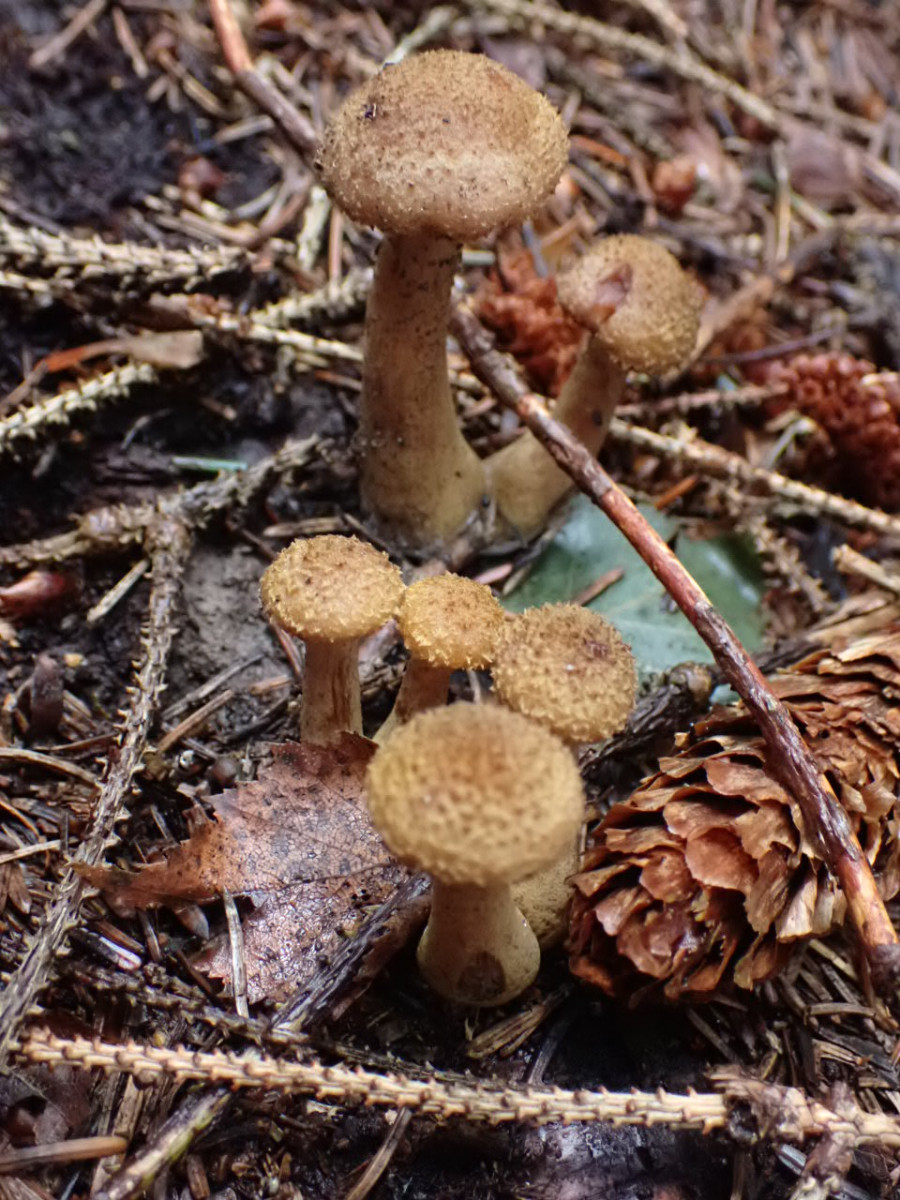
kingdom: Fungi
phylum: Basidiomycota
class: Agaricomycetes
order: Agaricales
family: Physalacriaceae
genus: Armillaria
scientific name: Armillaria
